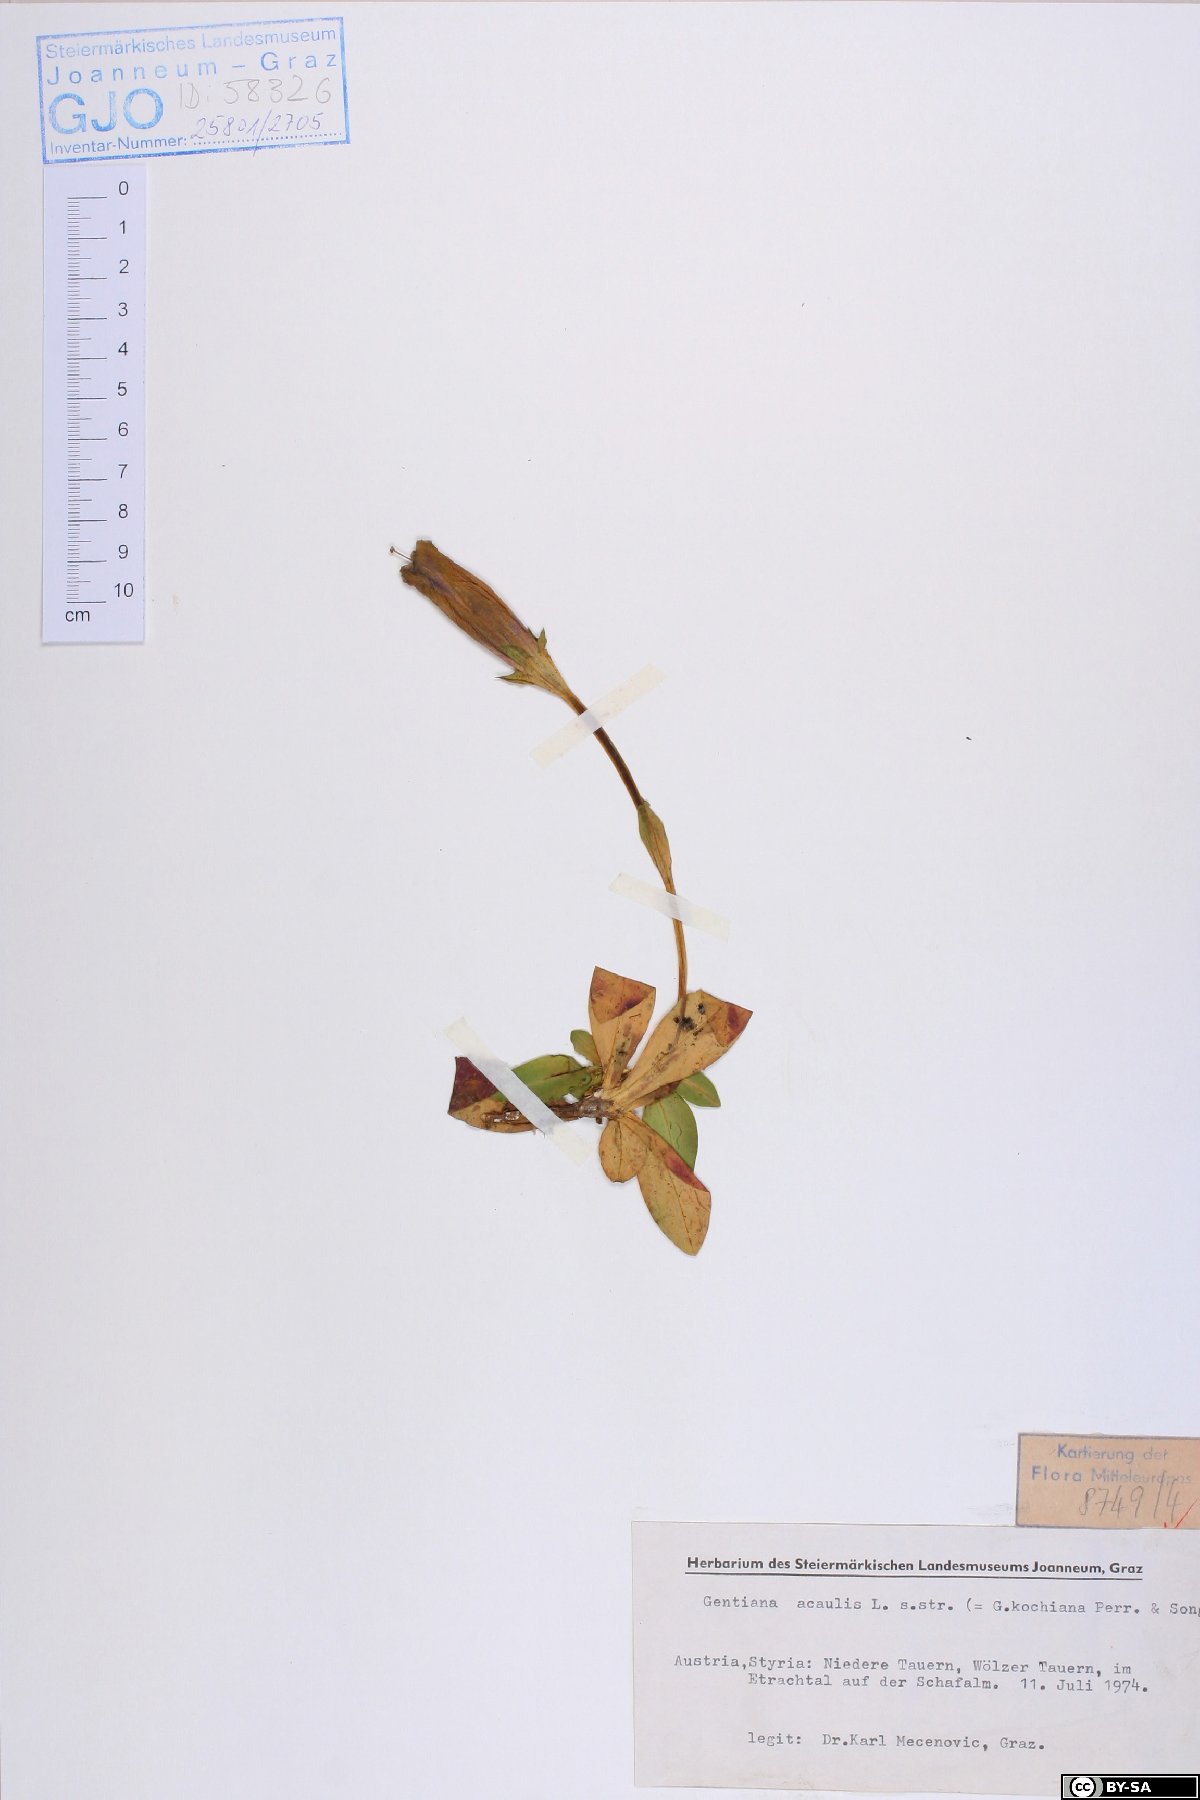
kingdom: Plantae
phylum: Tracheophyta
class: Magnoliopsida
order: Gentianales
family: Gentianaceae
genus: Gentiana
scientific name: Gentiana acaulis
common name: Trumpet gentian
